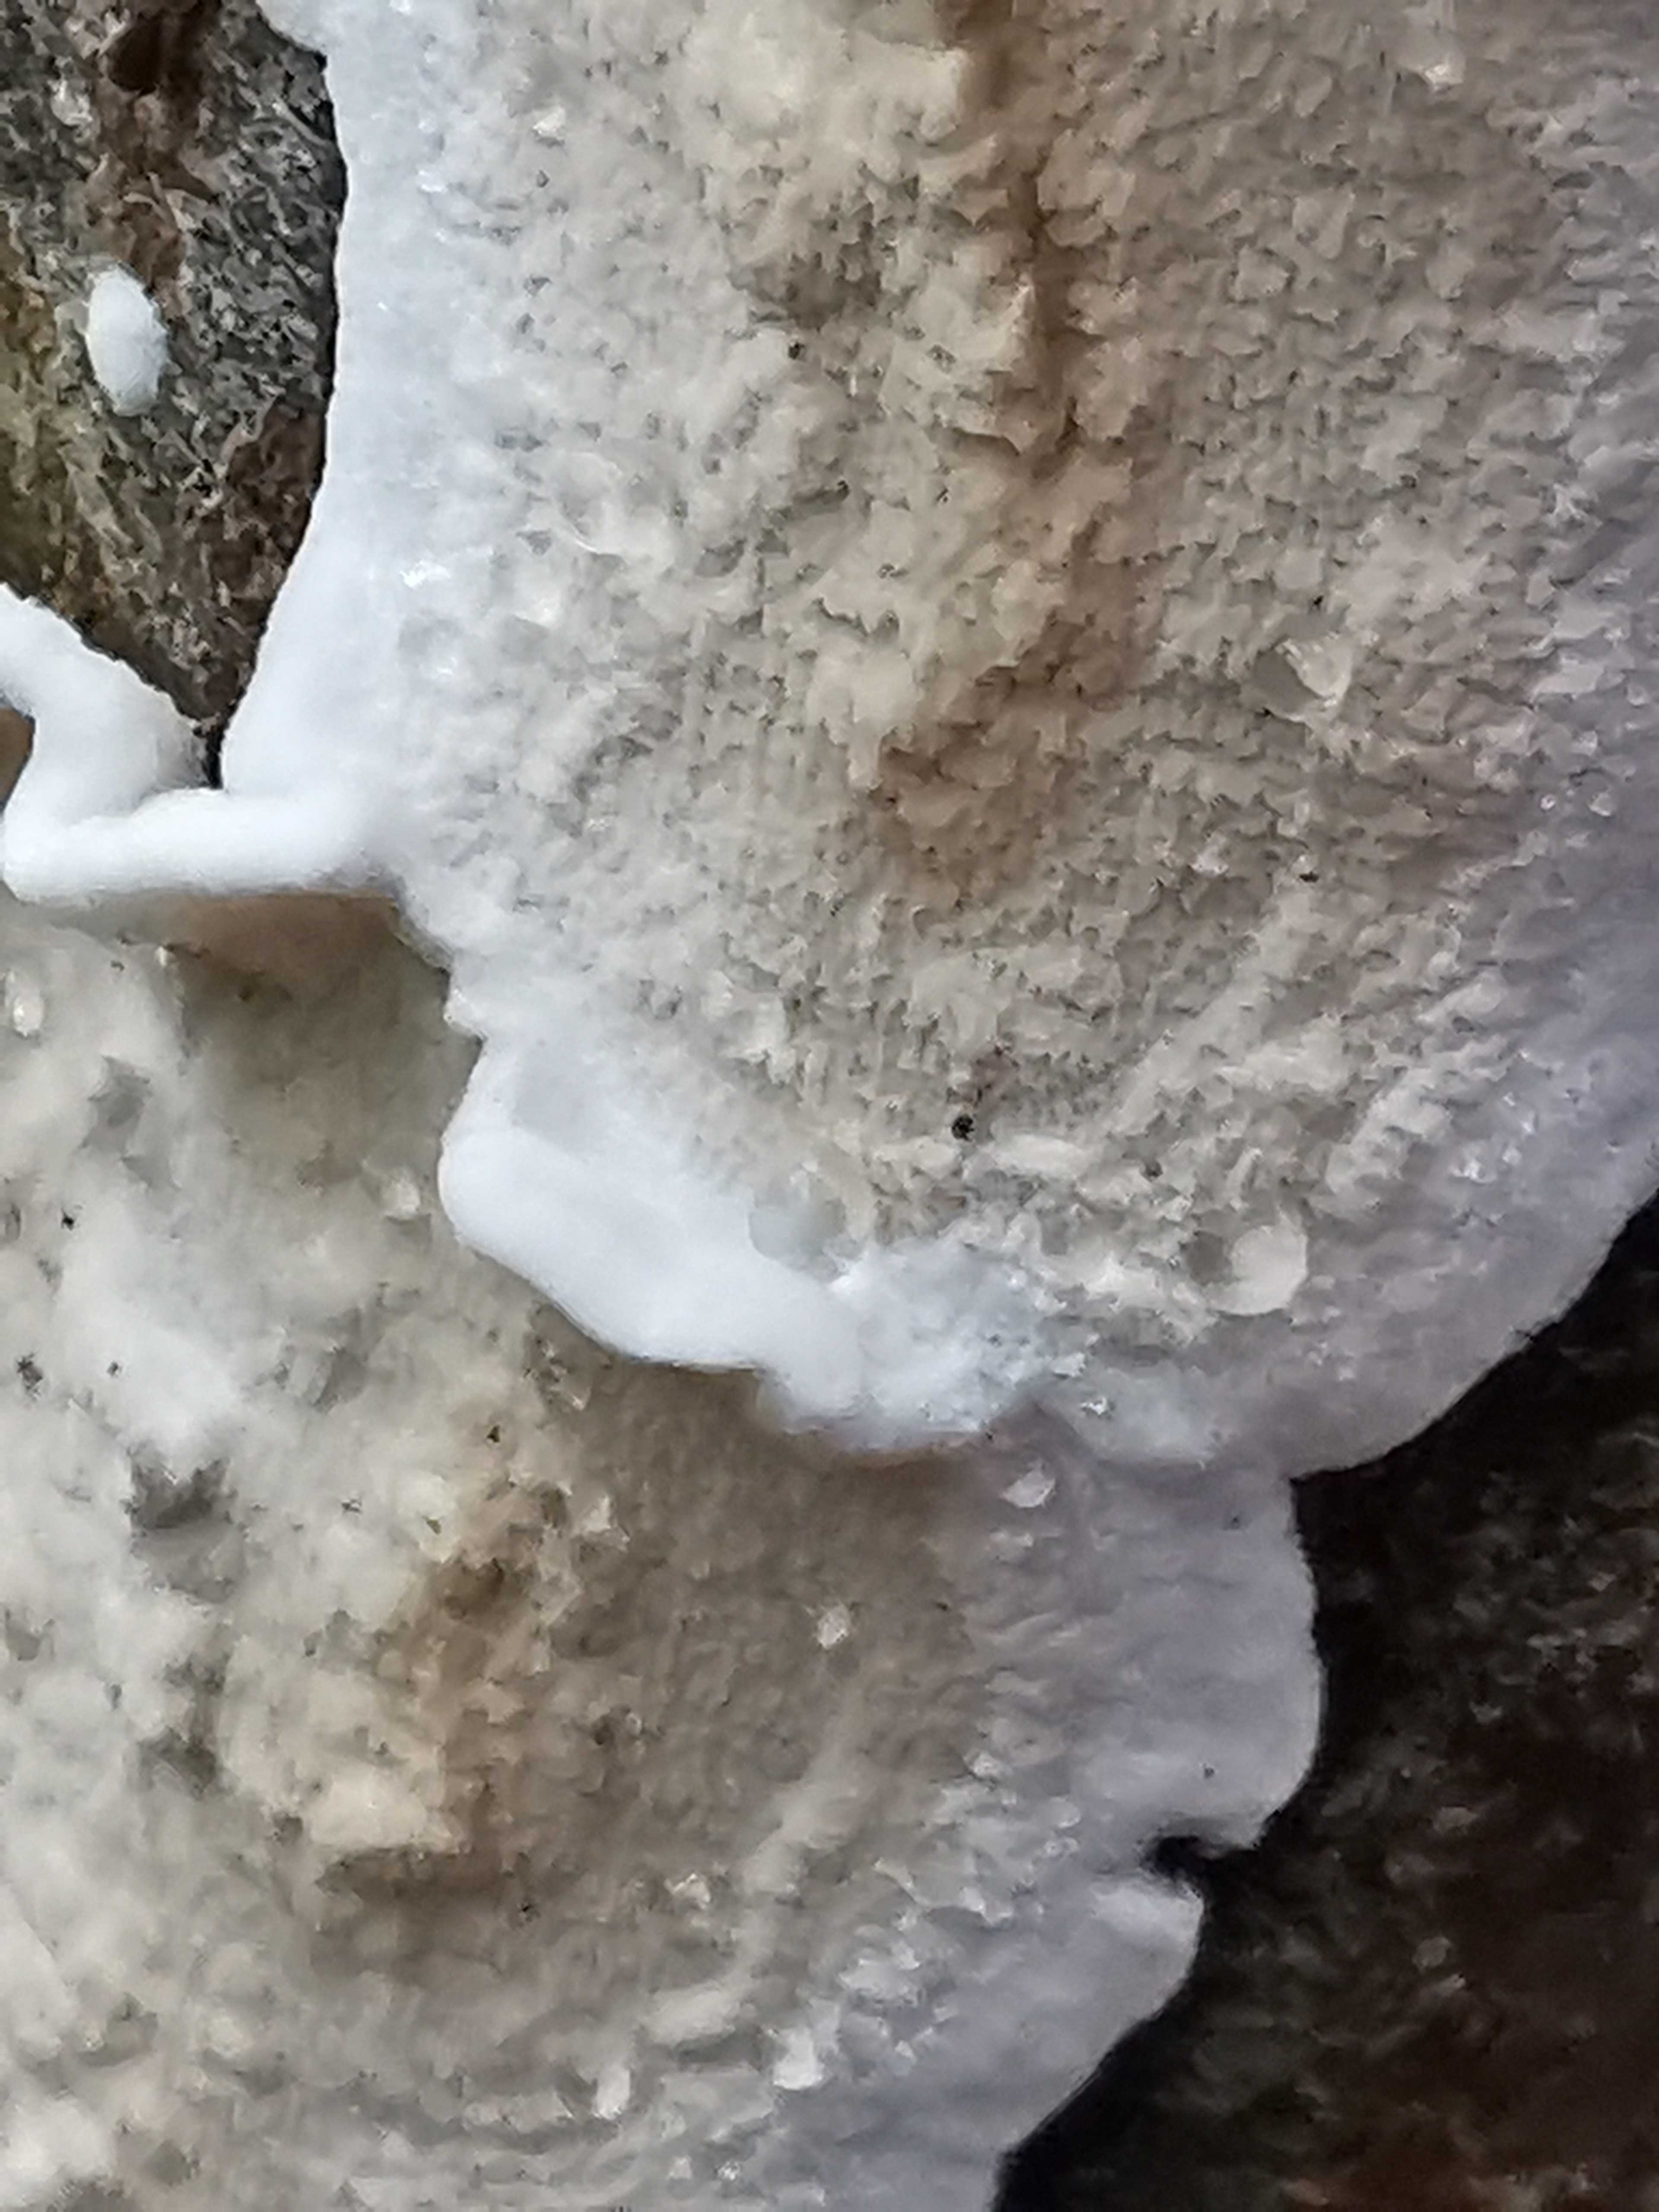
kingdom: Fungi
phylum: Basidiomycota
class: Agaricomycetes
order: Polyporales
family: Irpicaceae
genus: Byssomerulius
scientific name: Byssomerulius corium
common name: læder-åresvamp
